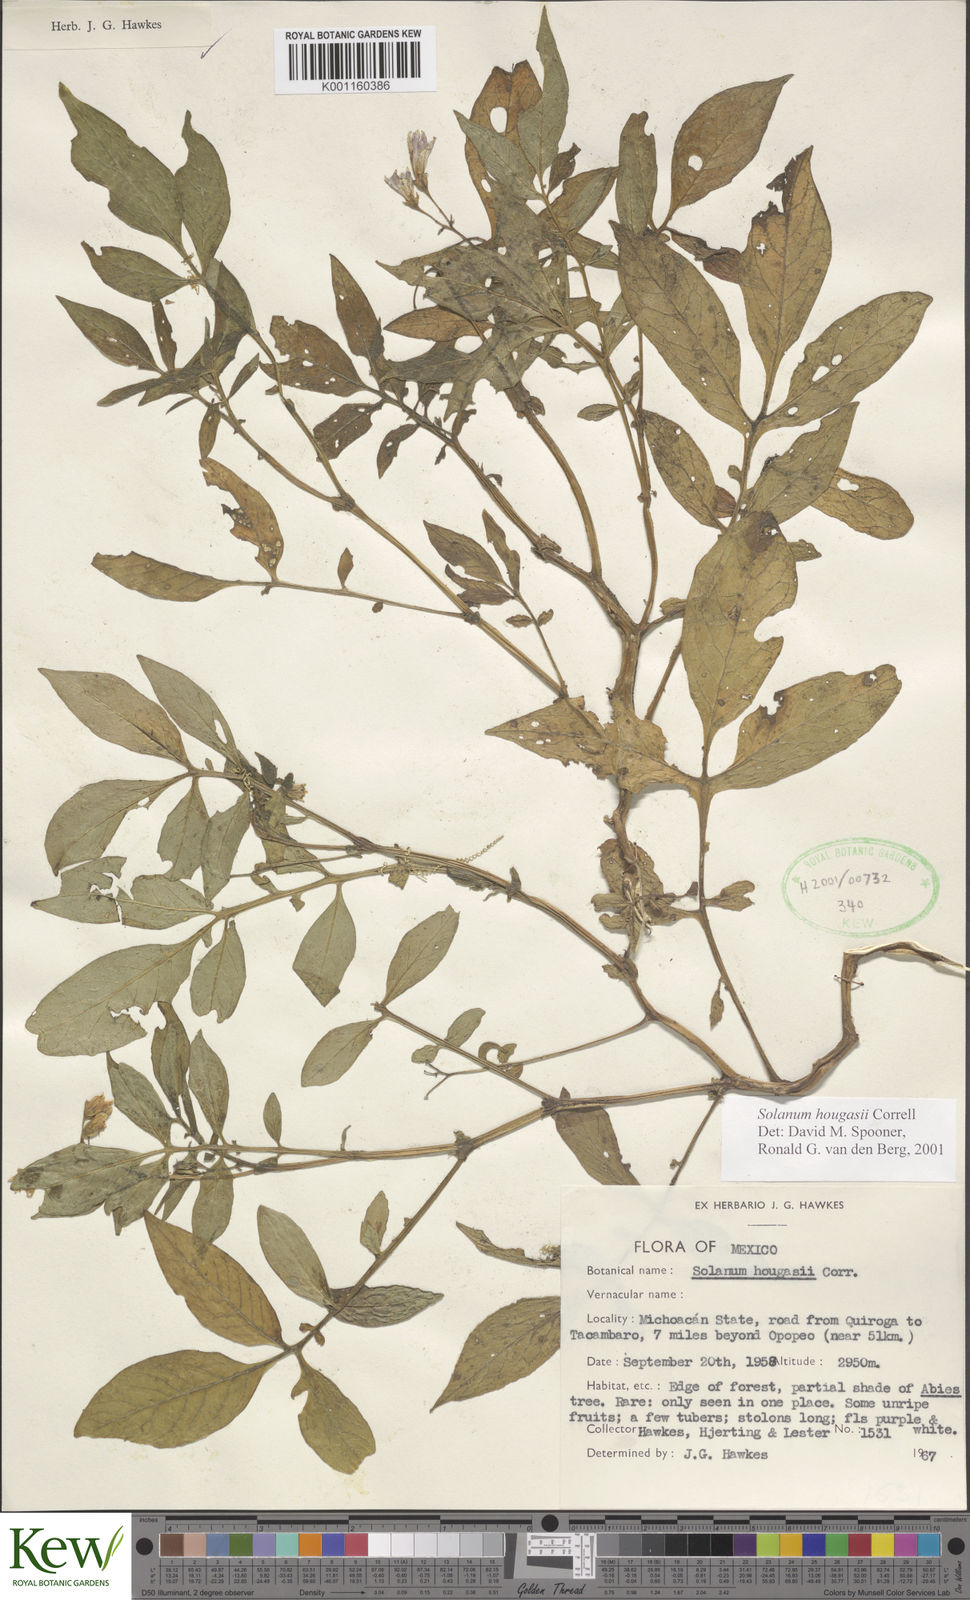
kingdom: Plantae
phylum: Tracheophyta
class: Magnoliopsida
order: Solanales
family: Solanaceae
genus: Solanum
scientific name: Solanum hougasii
